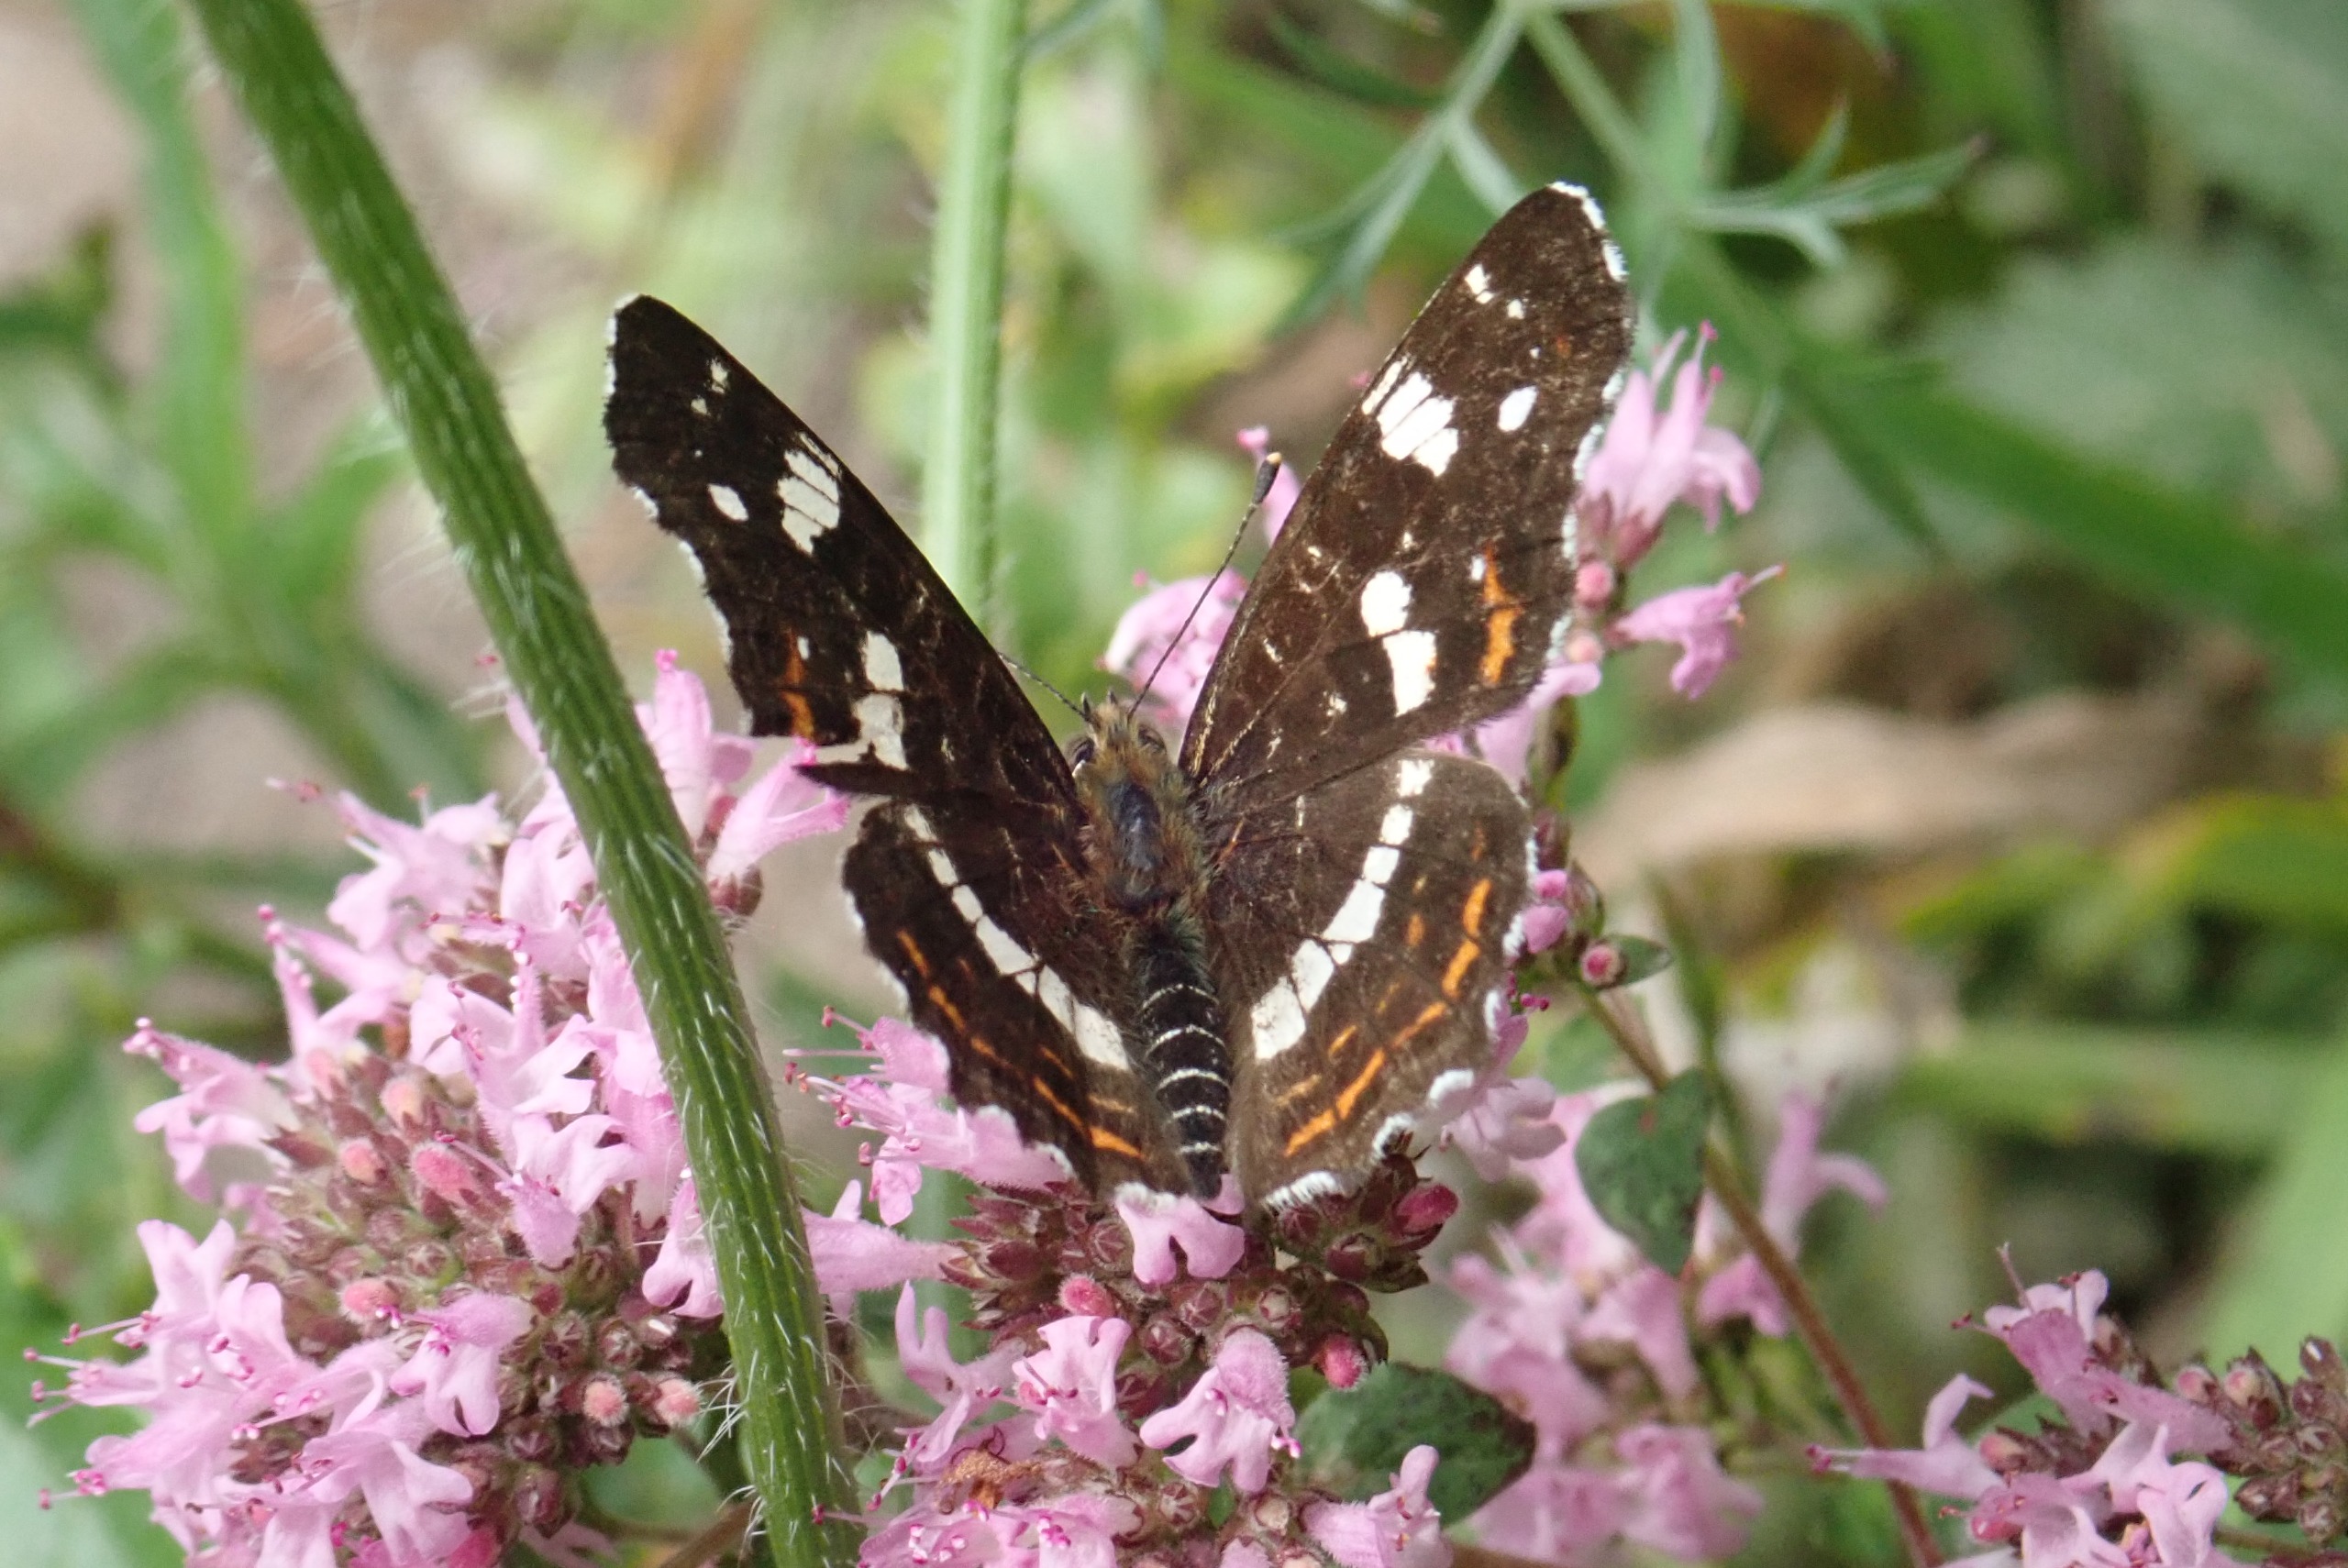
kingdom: Animalia
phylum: Arthropoda
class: Insecta
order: Lepidoptera
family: Nymphalidae
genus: Araschnia
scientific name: Araschnia levana
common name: Nældesommerfugl
